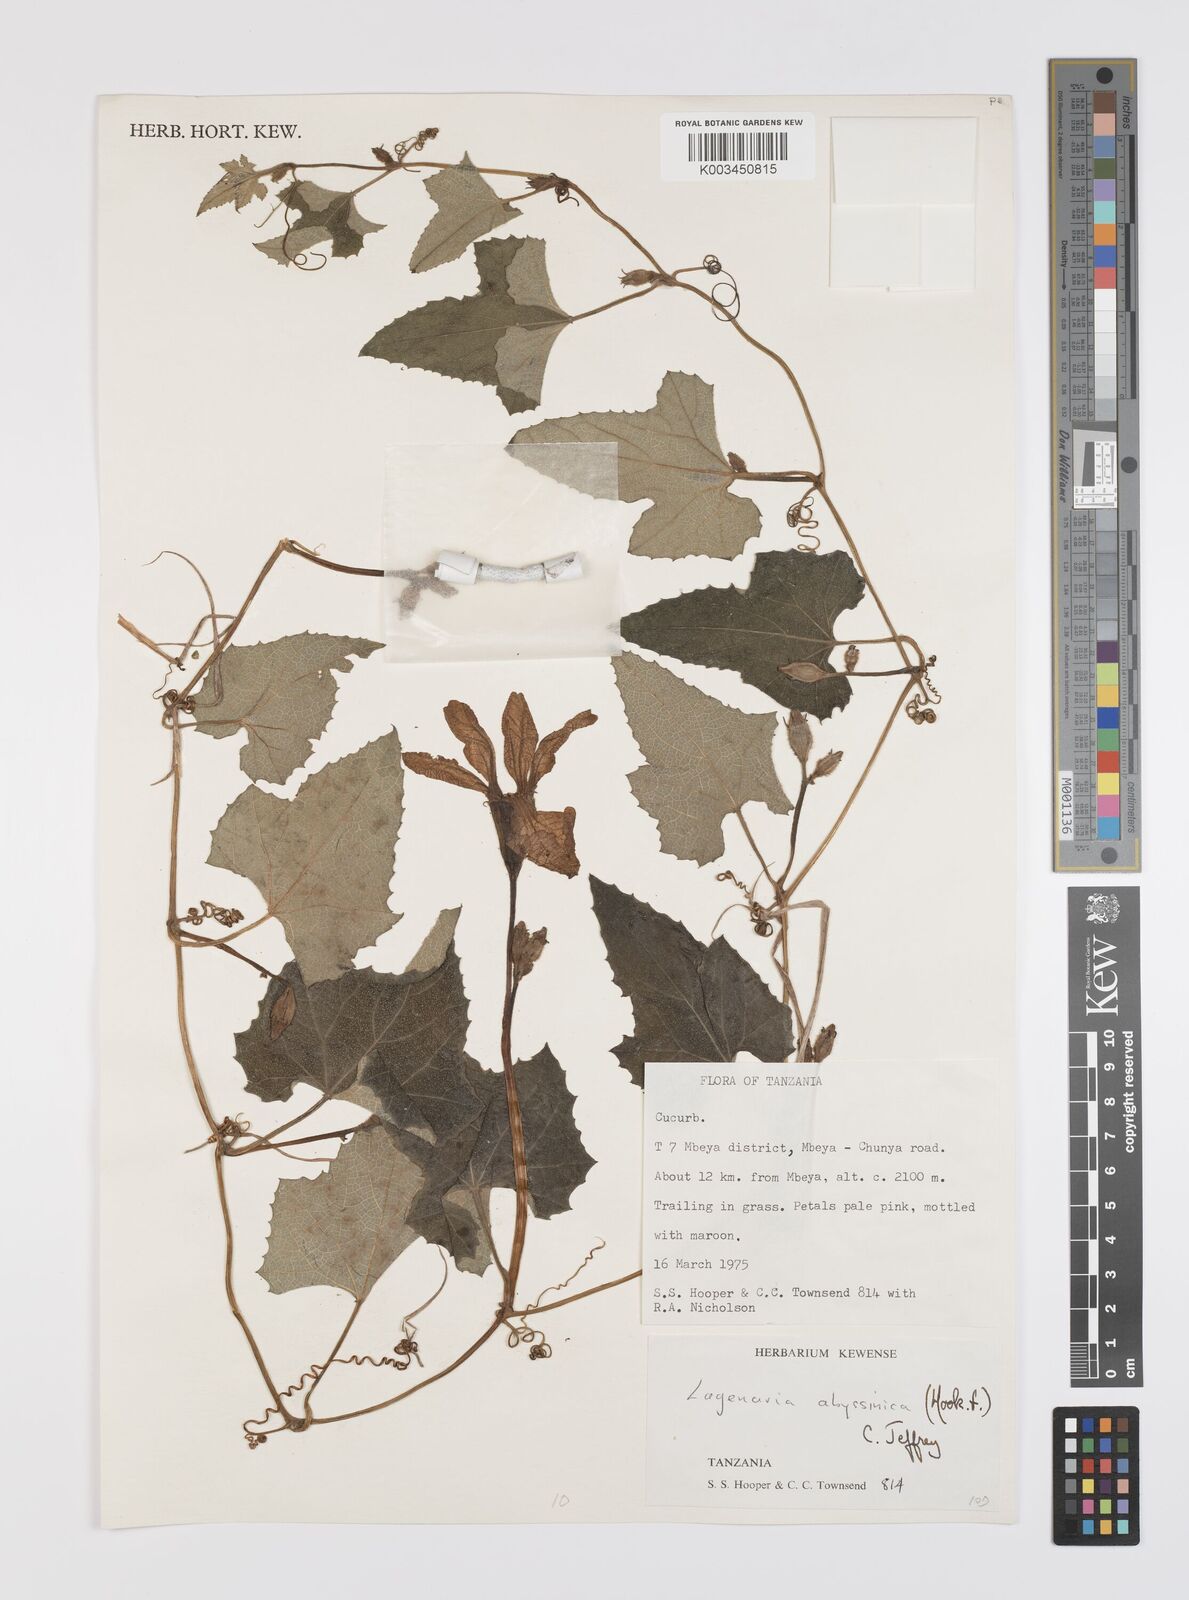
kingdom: Plantae
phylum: Tracheophyta
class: Magnoliopsida
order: Cucurbitales
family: Cucurbitaceae
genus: Lagenaria
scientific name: Lagenaria abyssinica
